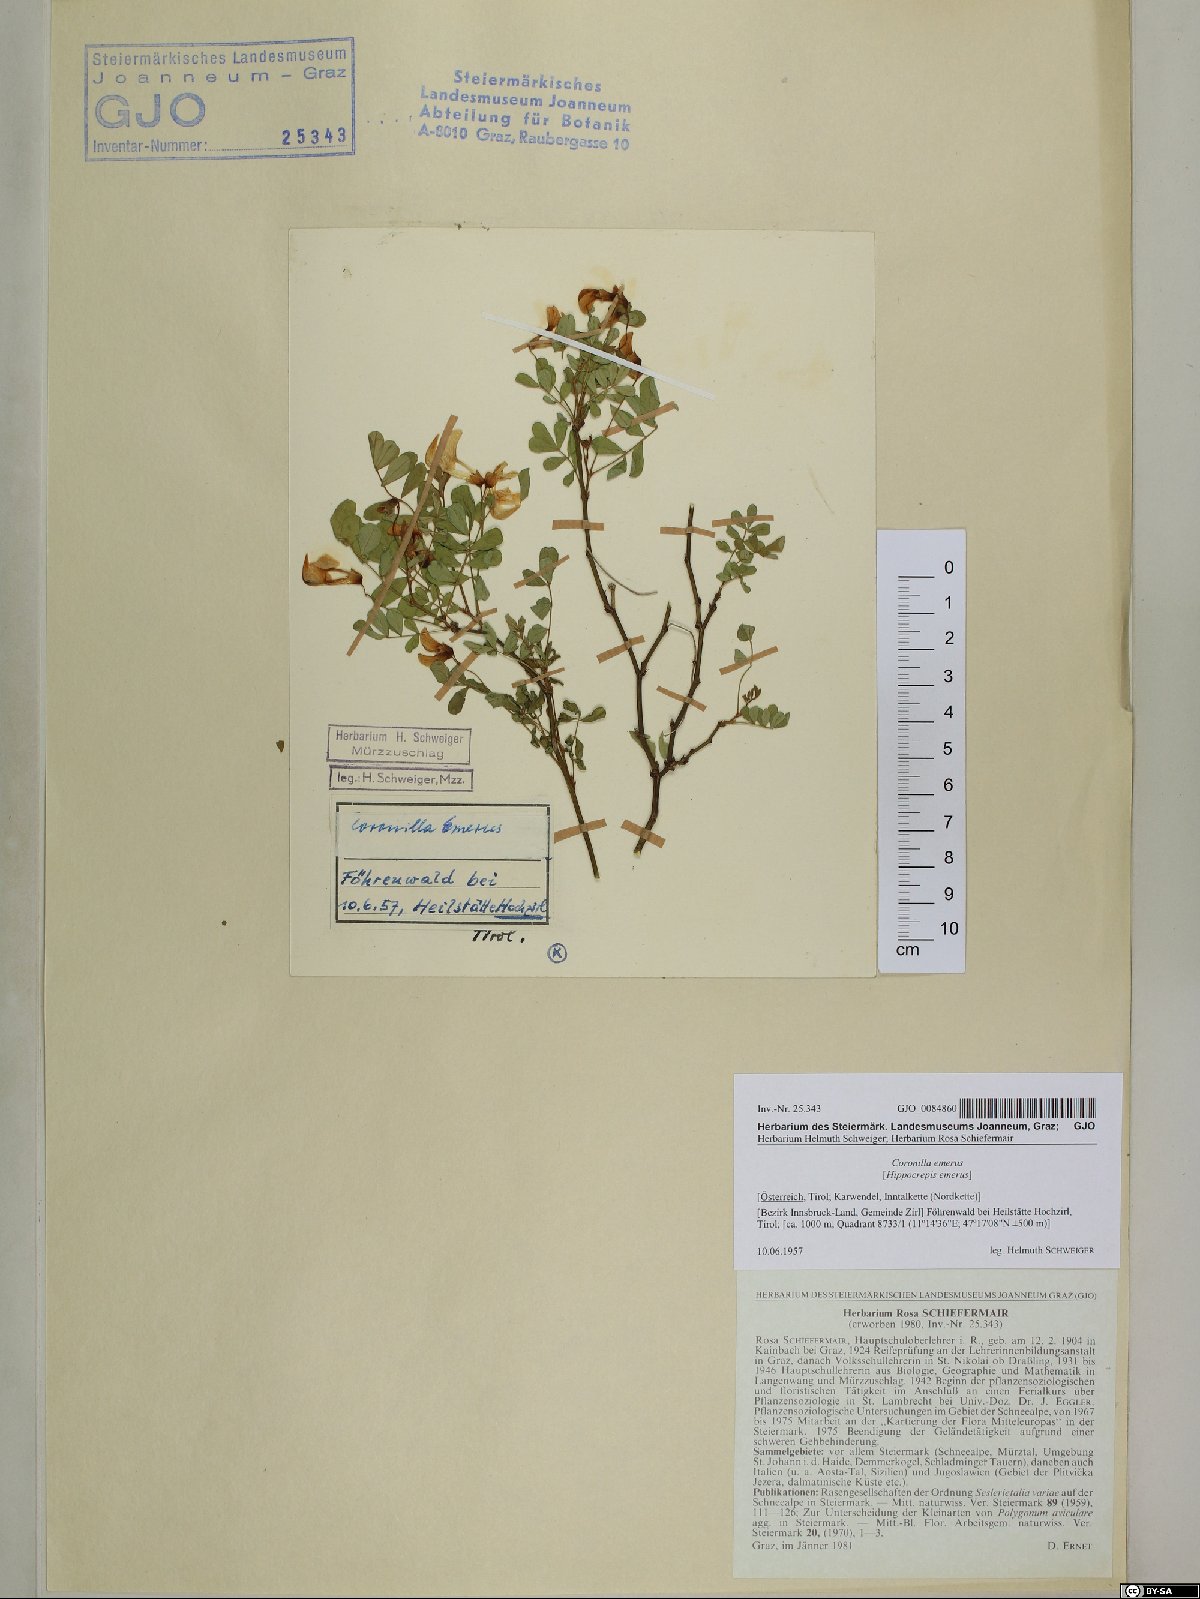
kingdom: Plantae
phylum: Tracheophyta
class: Magnoliopsida
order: Fabales
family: Fabaceae
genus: Hippocrepis
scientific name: Hippocrepis emerus
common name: Scorpion senna
